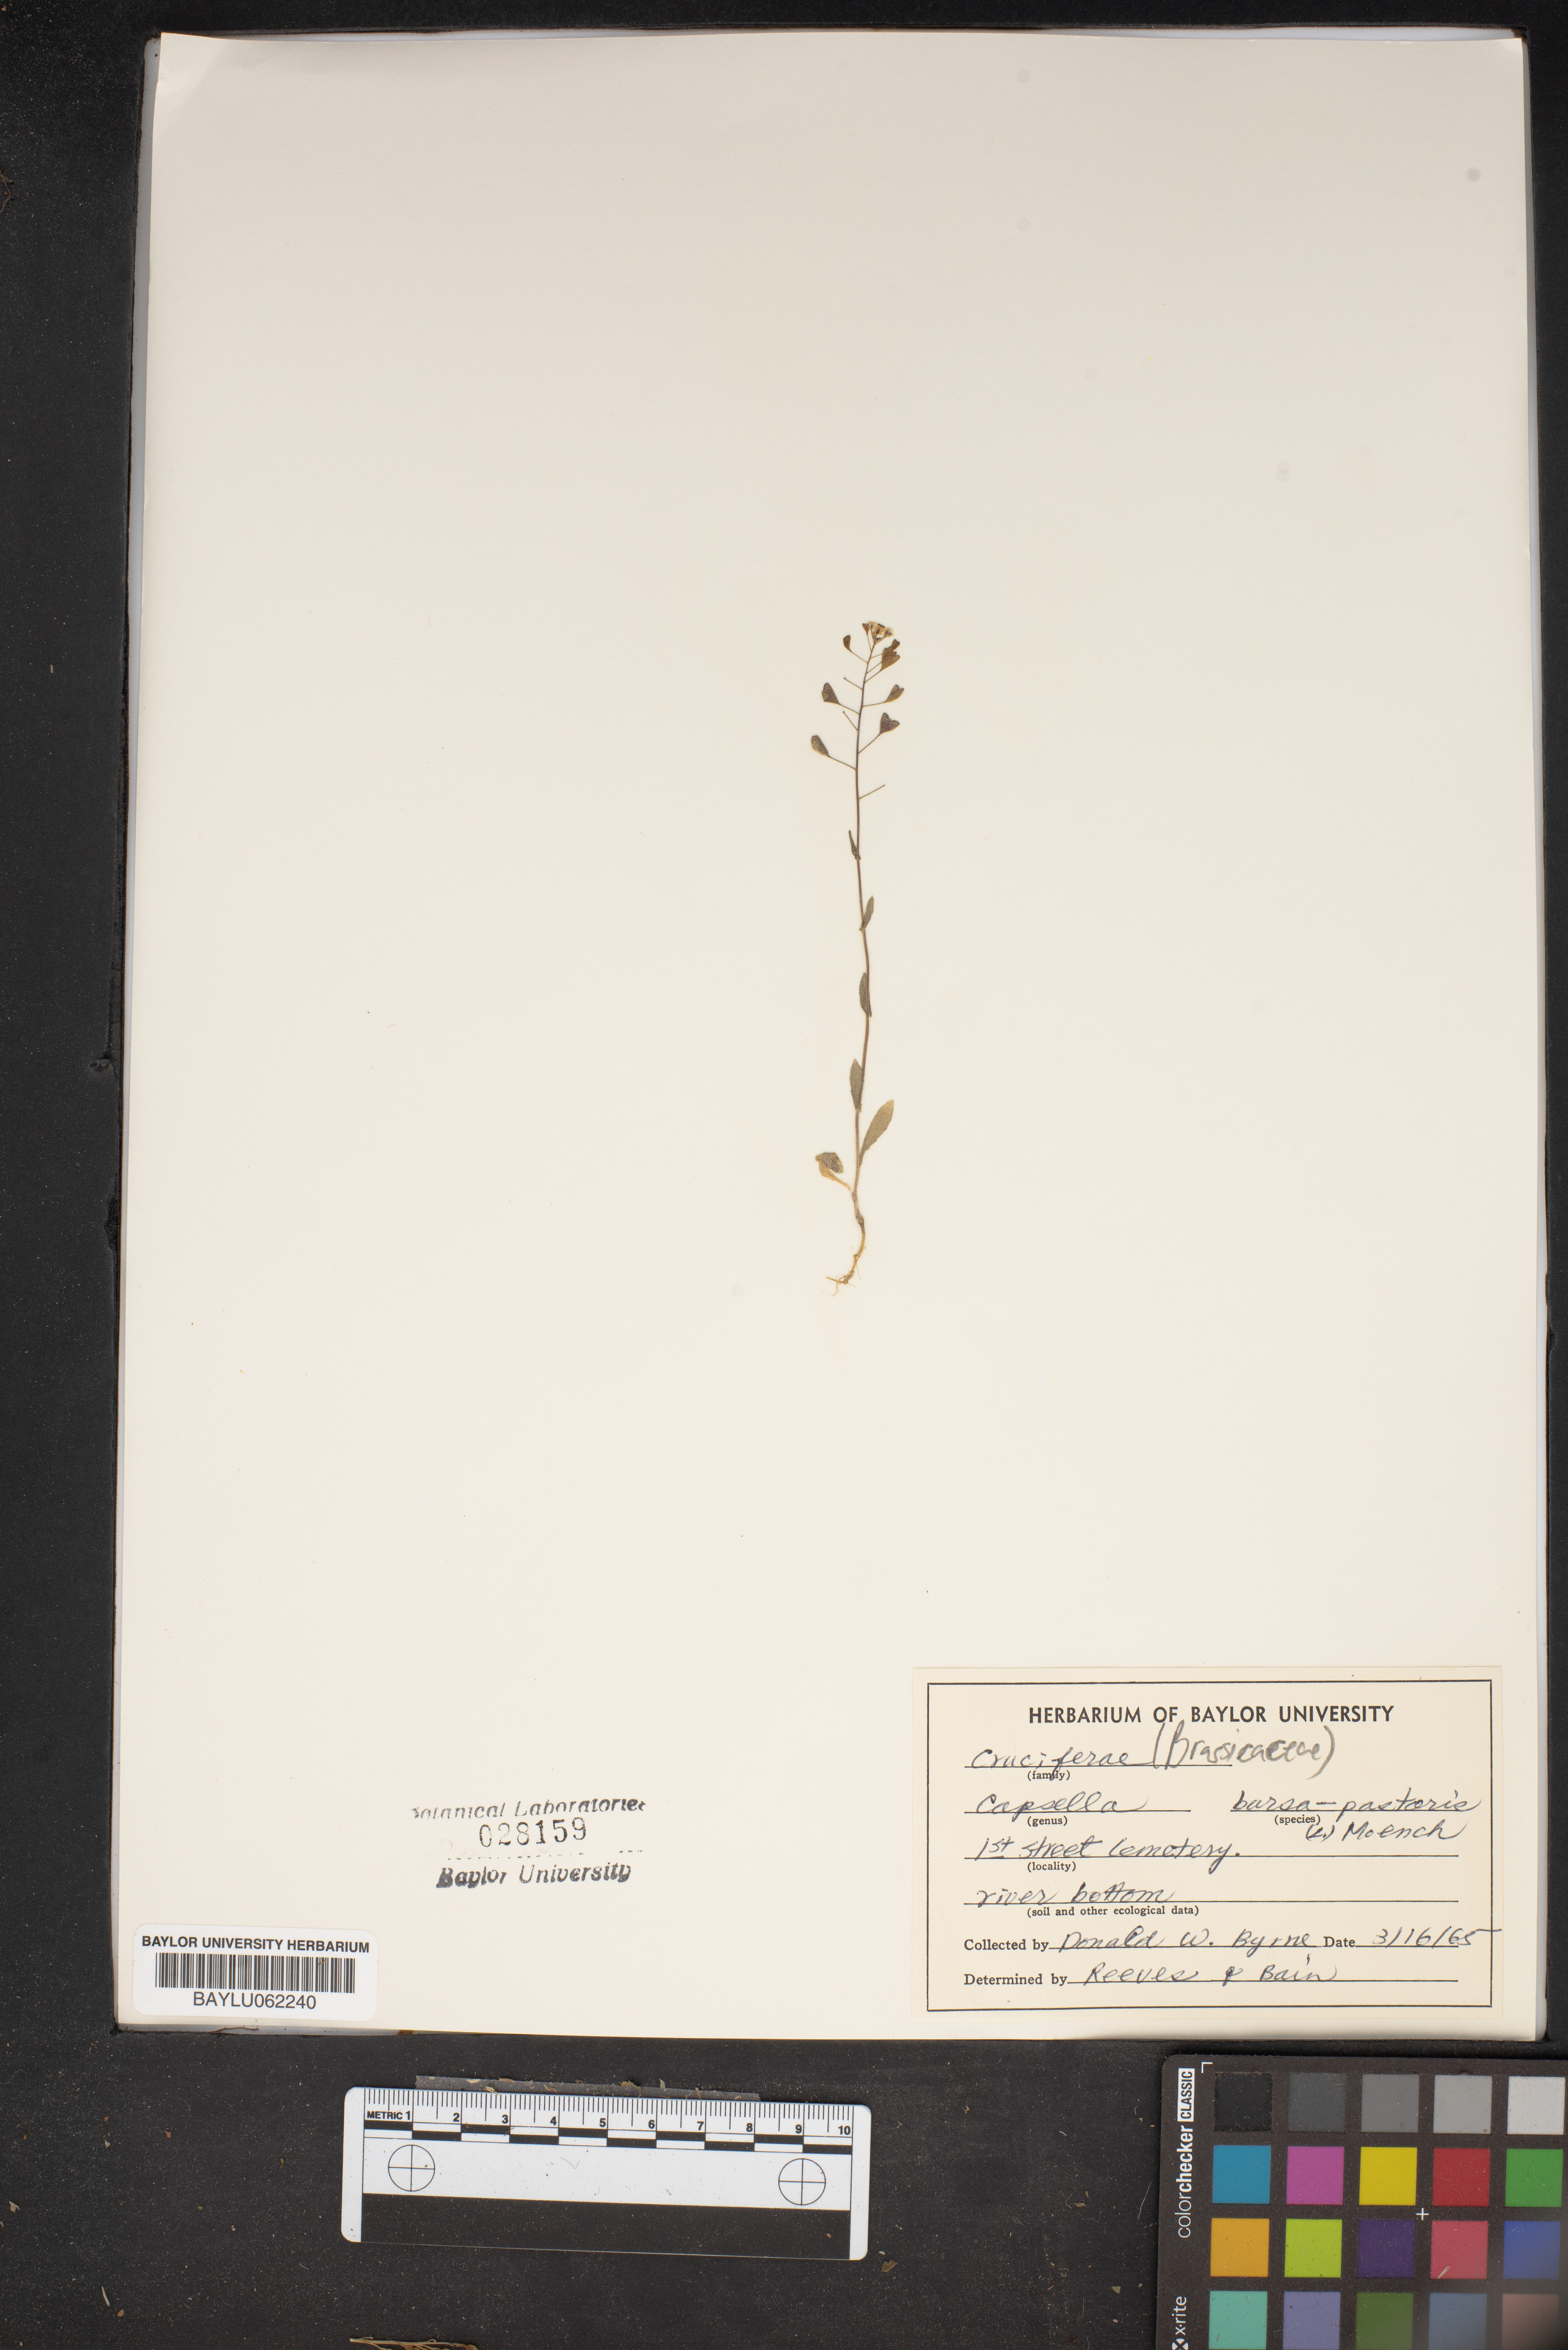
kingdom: Plantae
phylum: Tracheophyta
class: Magnoliopsida
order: Brassicales
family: Brassicaceae
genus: Capsella
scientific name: Capsella bursa-pastoris
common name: Shepherd's purse
